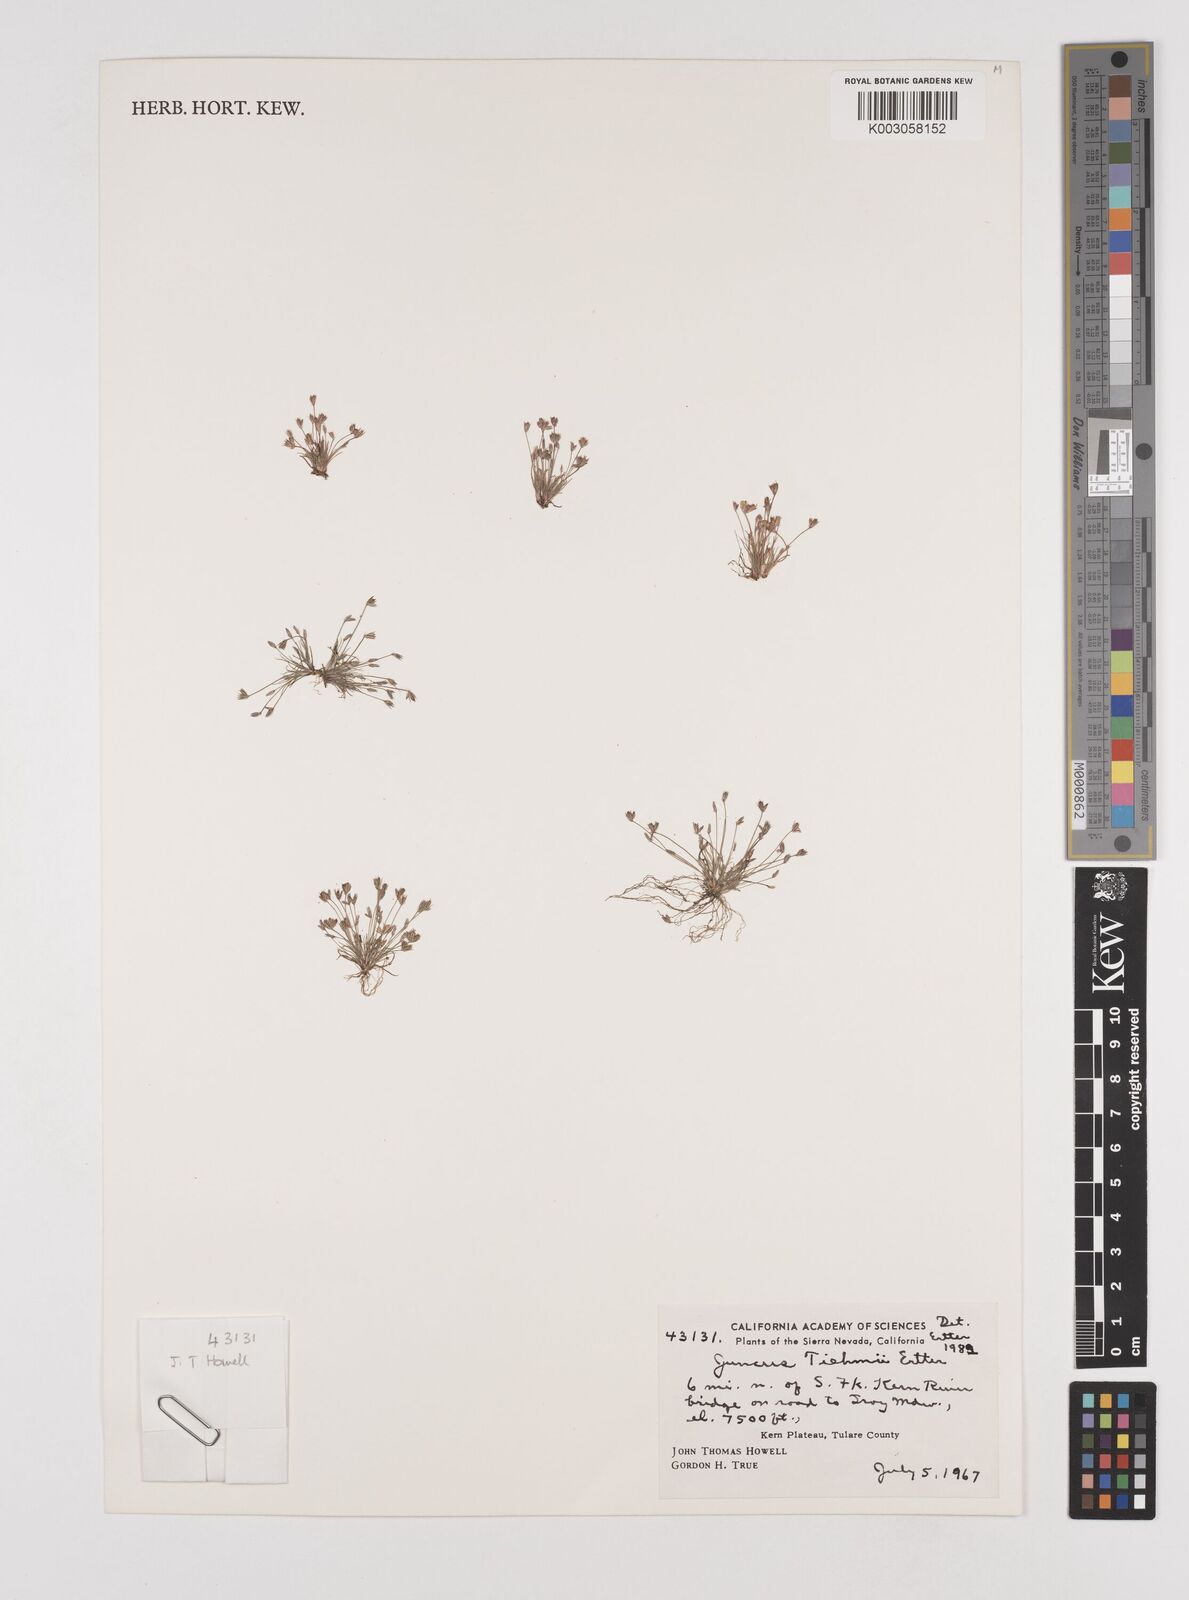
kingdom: Plantae
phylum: Tracheophyta
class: Liliopsida
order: Poales
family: Juncaceae
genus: Juncus
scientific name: Juncus tiehmii
